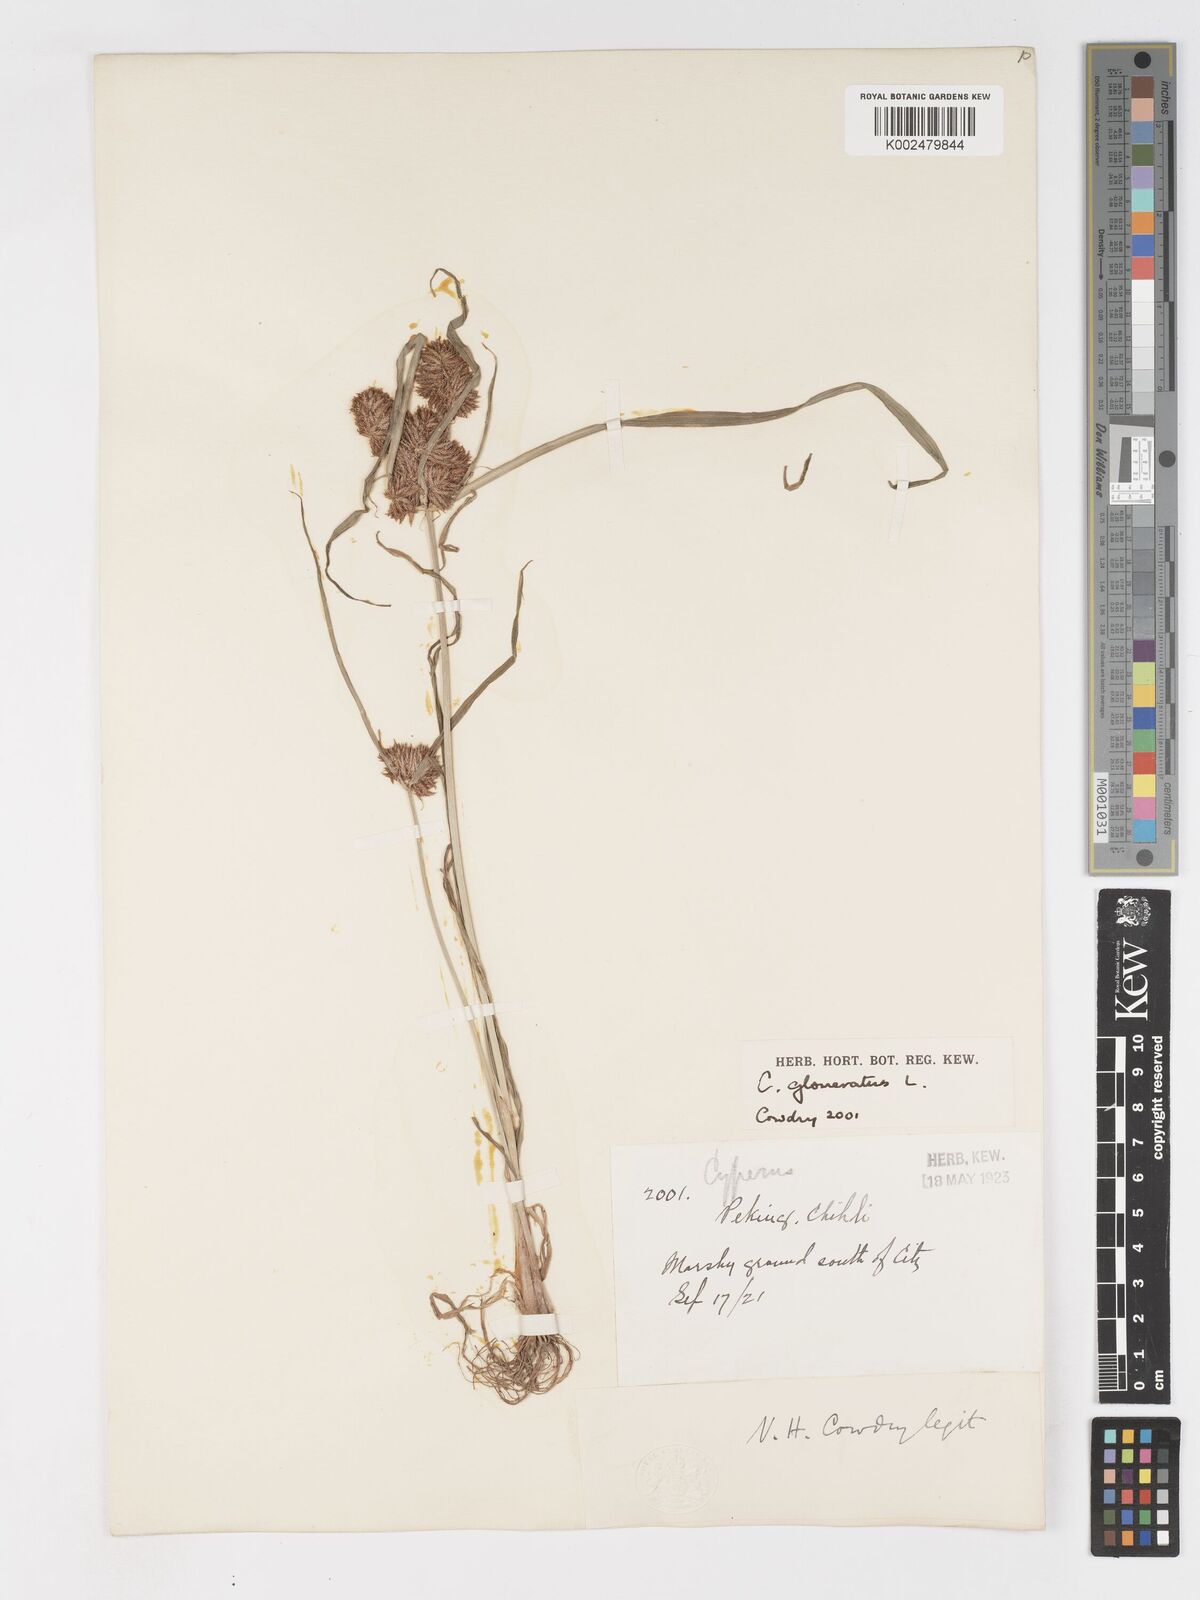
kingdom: Plantae
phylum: Tracheophyta
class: Liliopsida
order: Poales
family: Cyperaceae
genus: Cyperus
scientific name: Cyperus glomeratus
